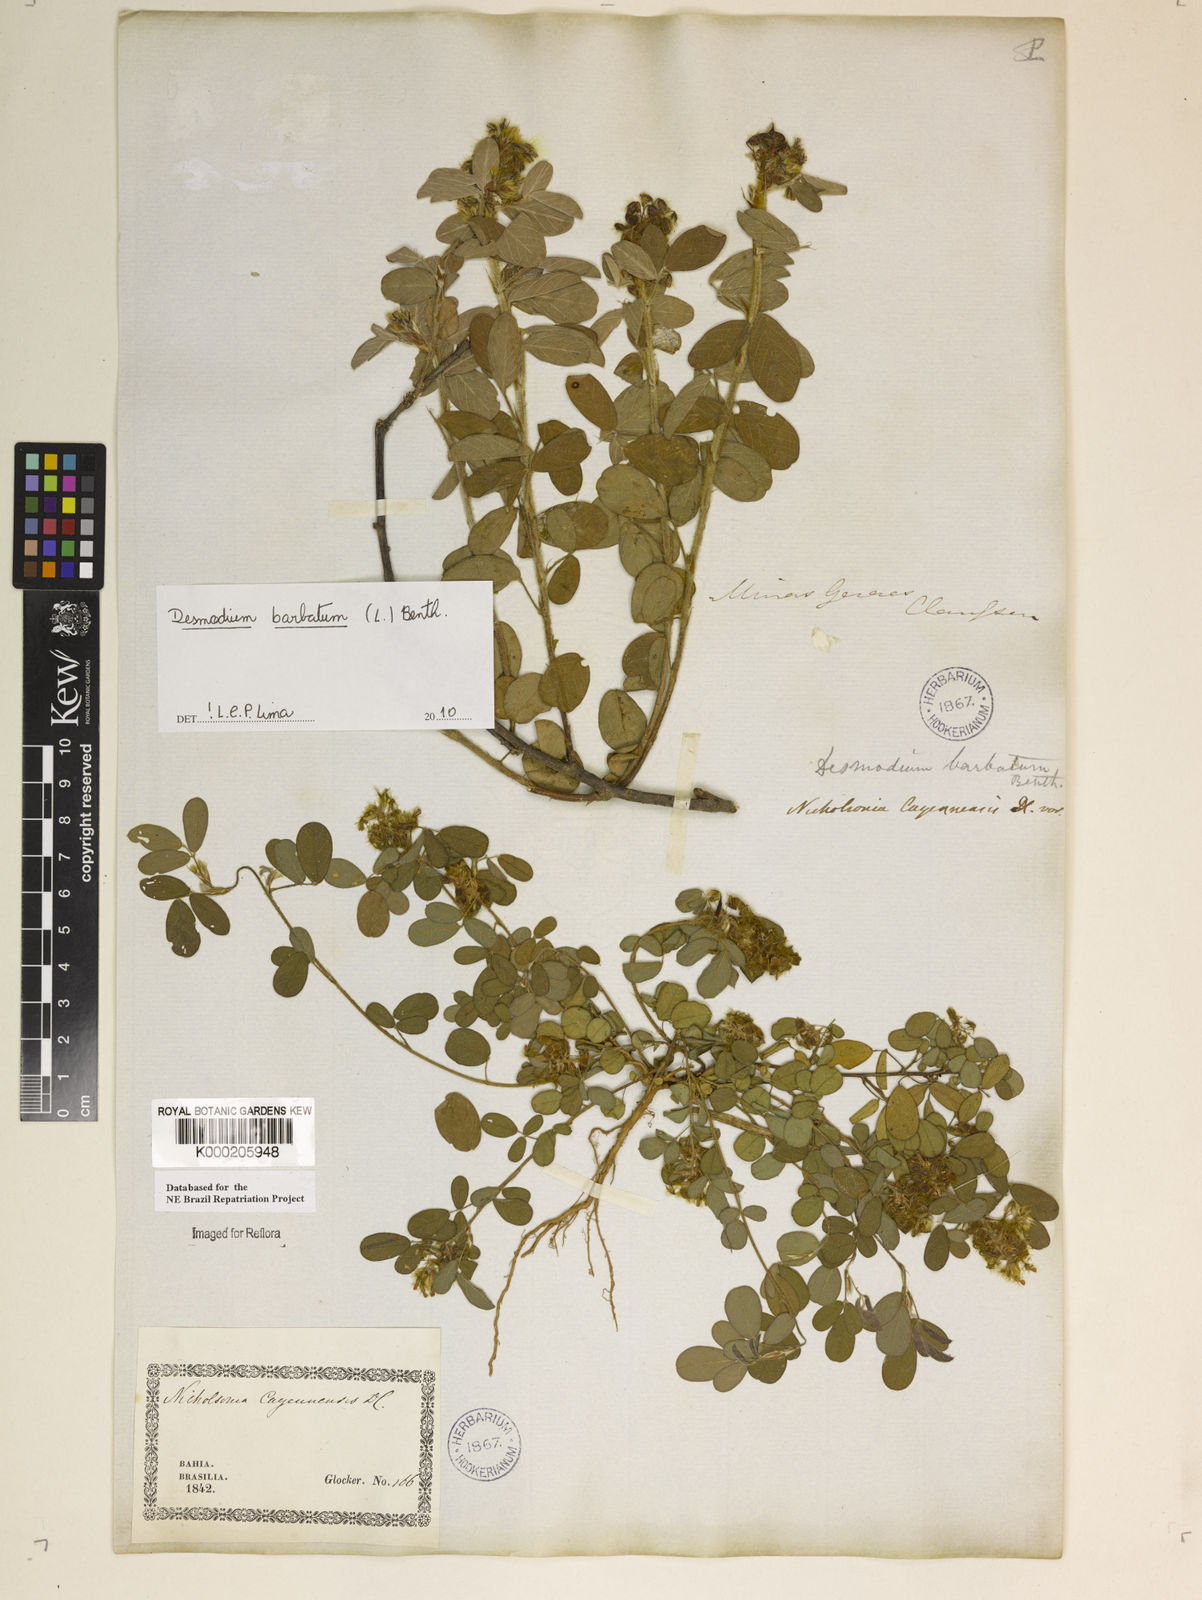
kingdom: Plantae
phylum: Tracheophyta
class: Magnoliopsida
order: Fabales
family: Fabaceae
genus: Grona
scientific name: Grona barbata
